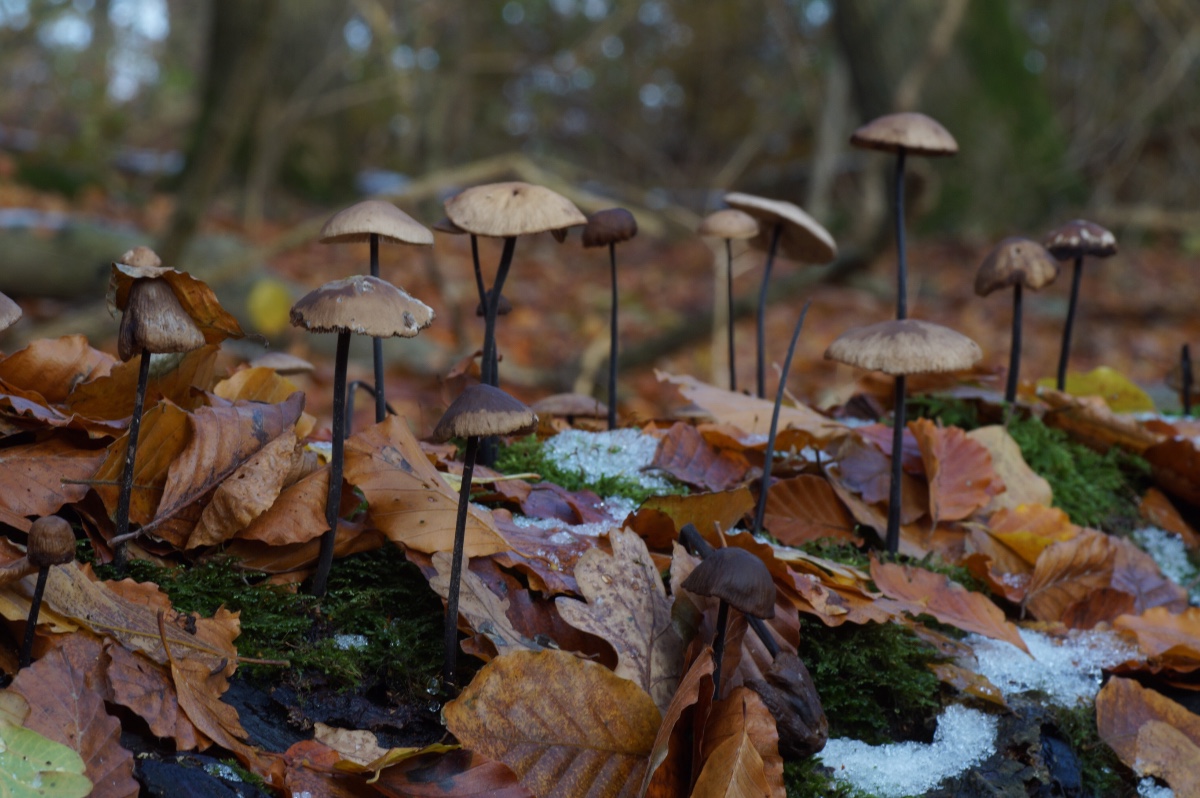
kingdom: Fungi
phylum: Basidiomycota
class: Agaricomycetes
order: Agaricales
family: Omphalotaceae
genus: Mycetinis
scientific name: Mycetinis alliaceus
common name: stor løghat
